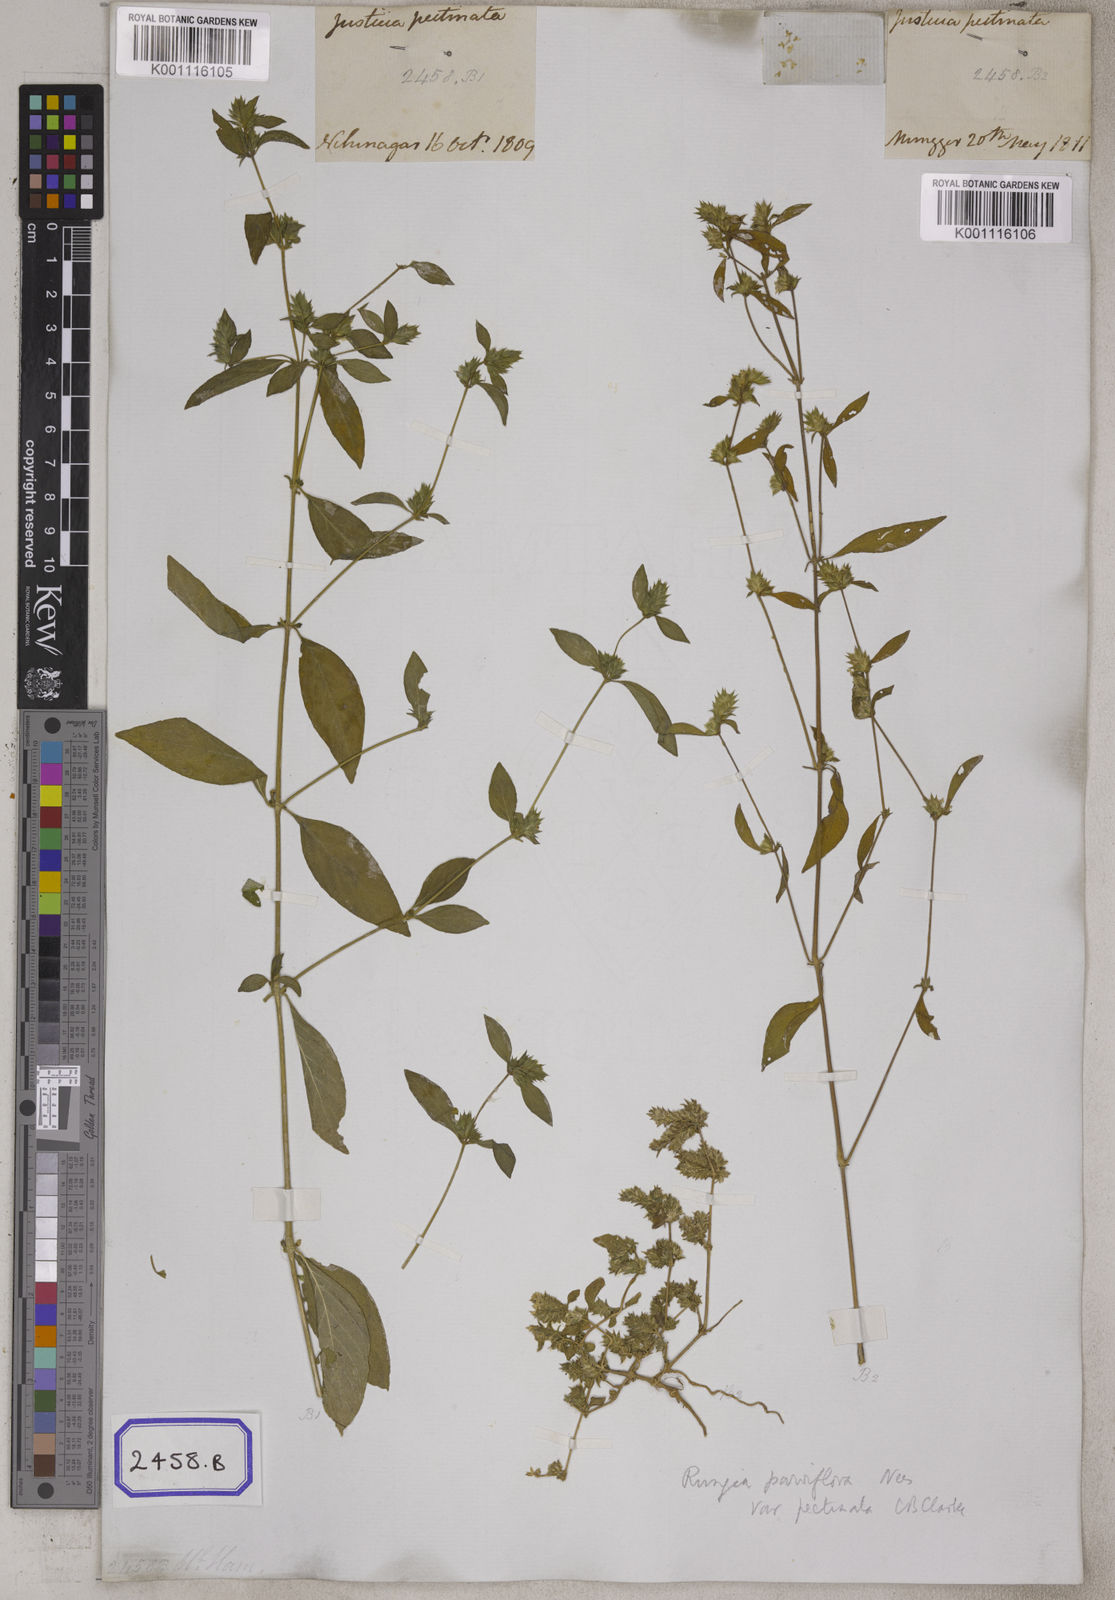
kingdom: Plantae
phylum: Tracheophyta
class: Magnoliopsida
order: Lamiales
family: Acanthaceae
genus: Rungia
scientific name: Rungia pectinata
